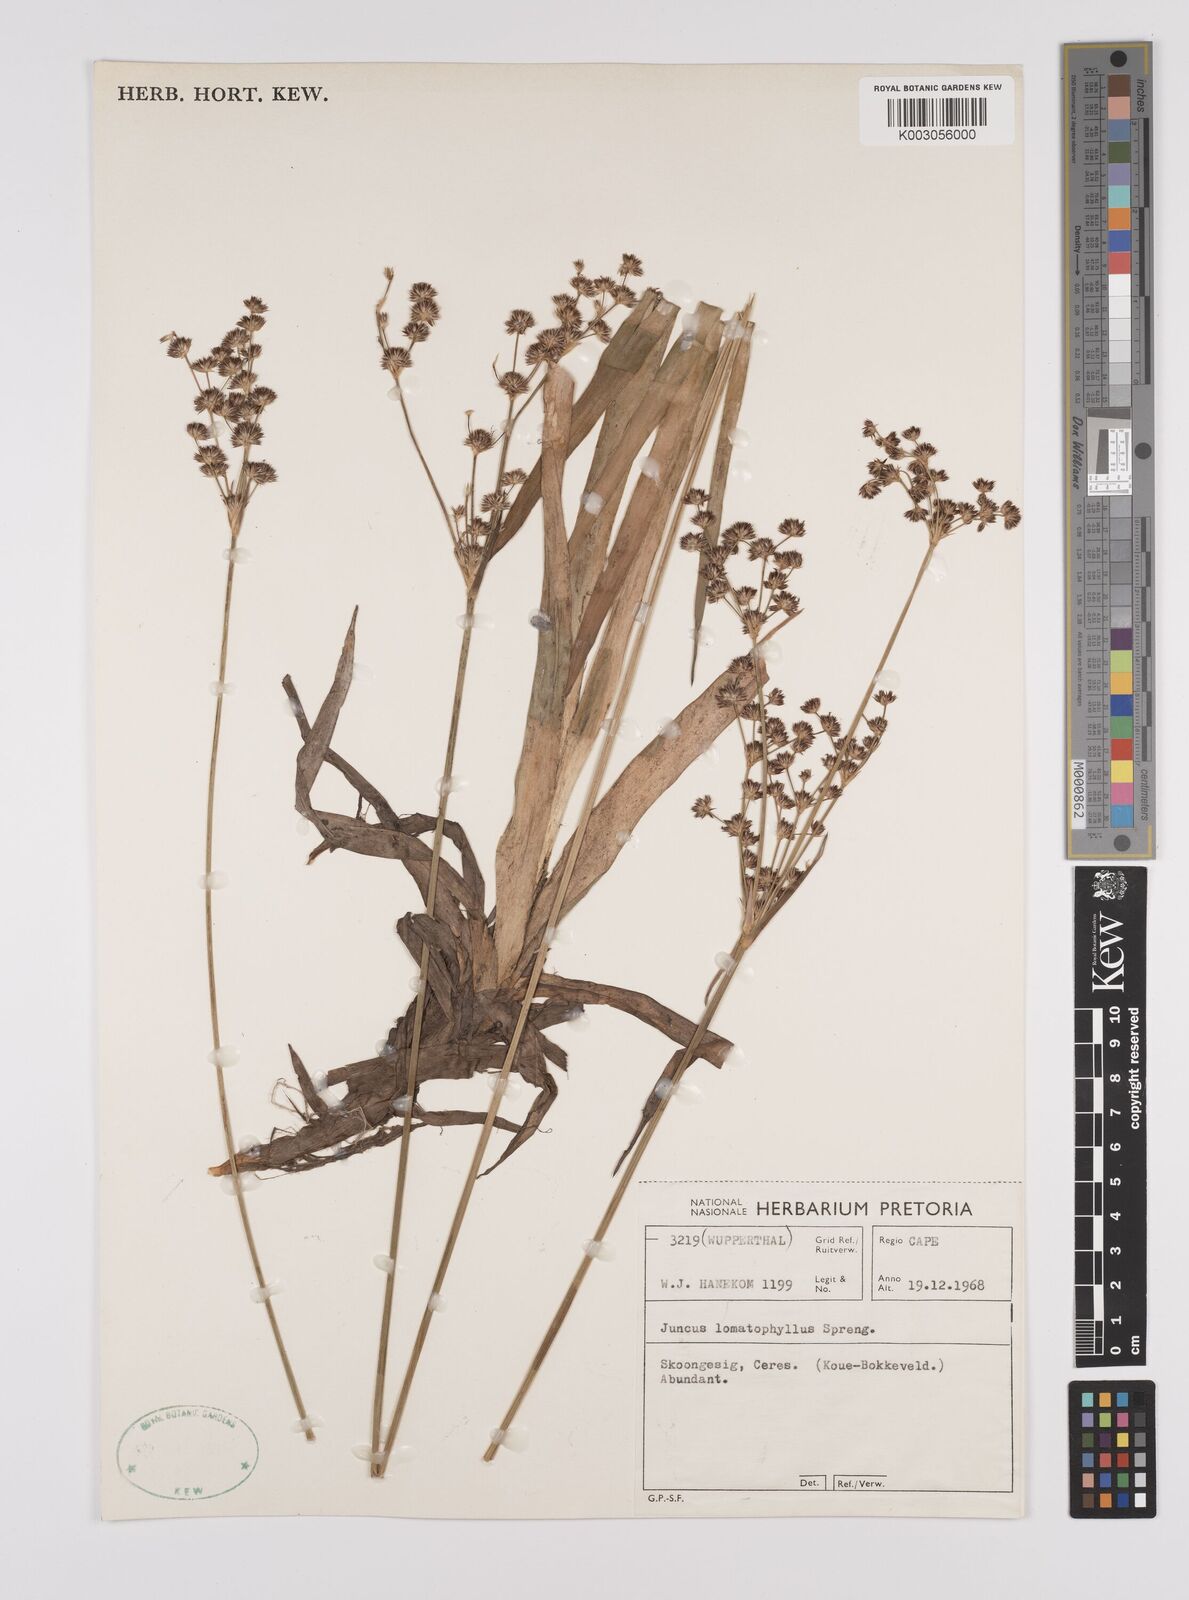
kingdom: Plantae
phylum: Tracheophyta
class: Liliopsida
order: Poales
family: Juncaceae
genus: Juncus
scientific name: Juncus lomatophyllus
